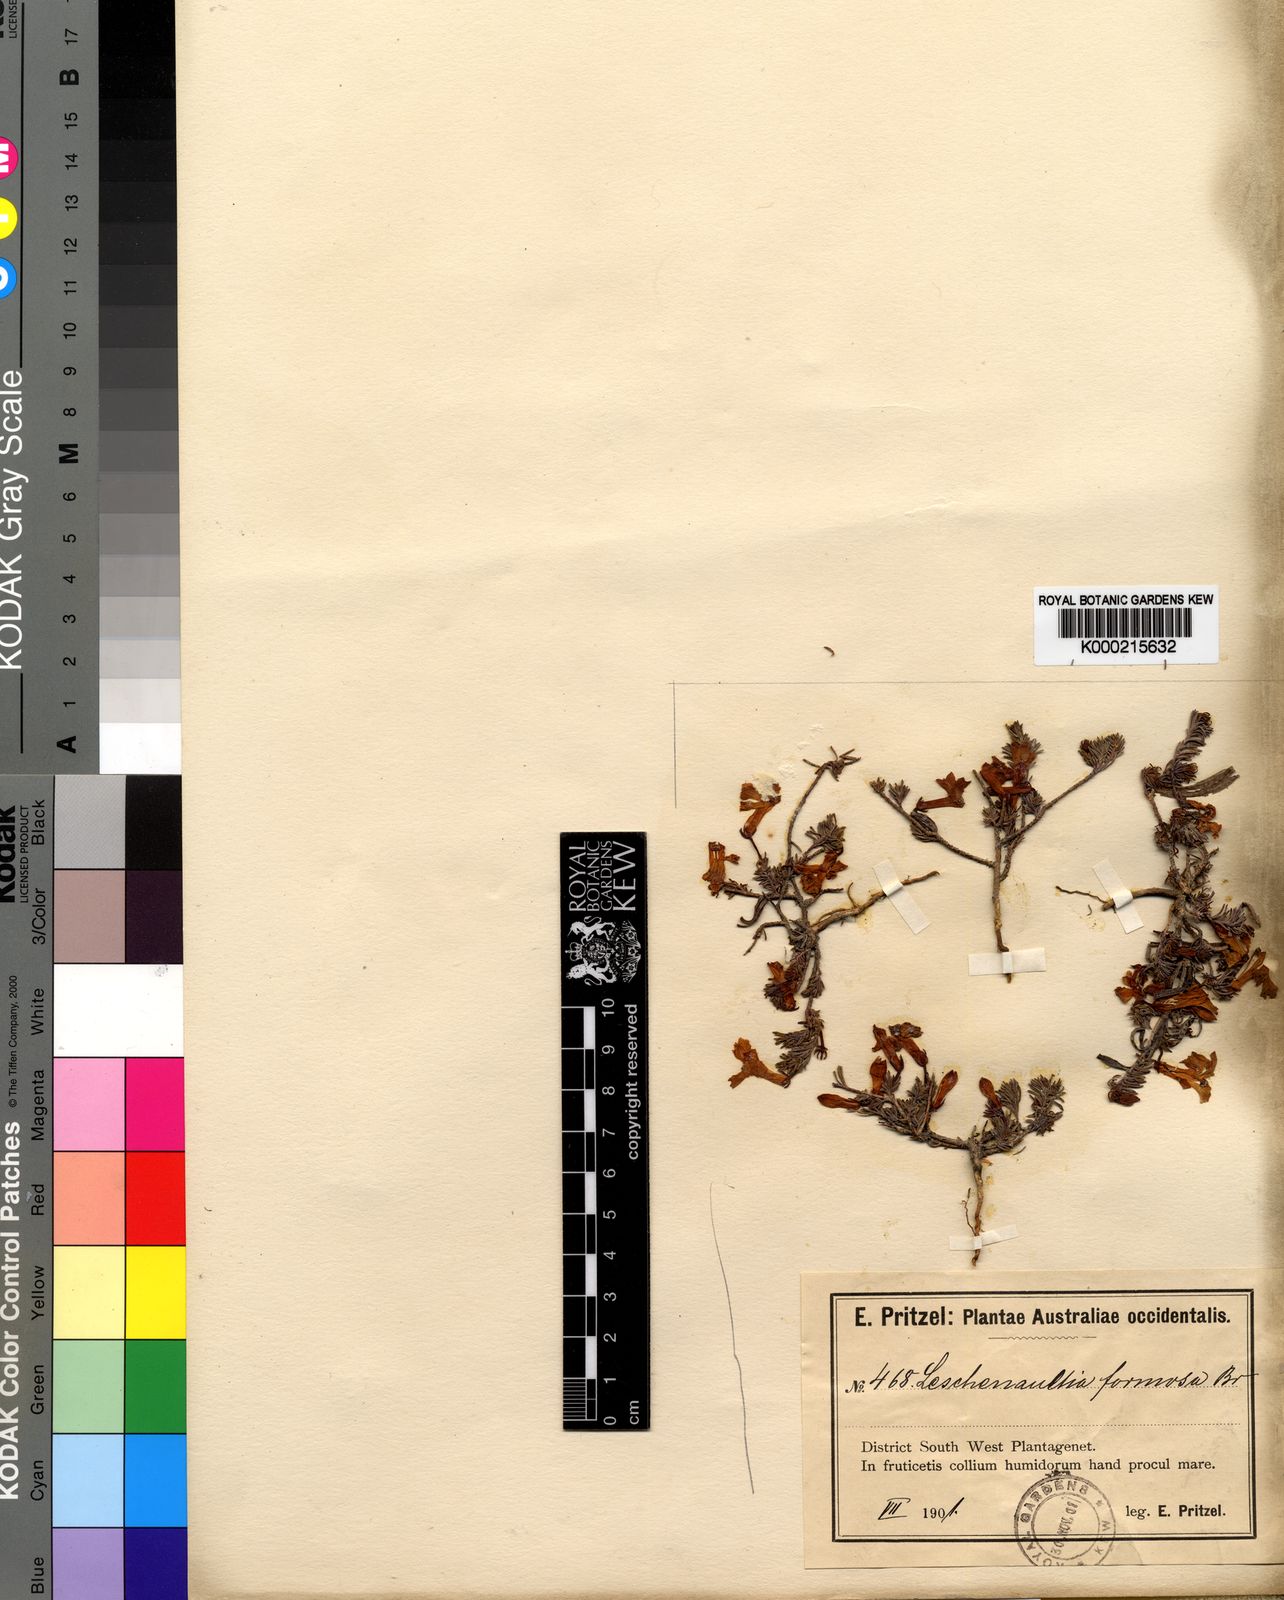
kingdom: Plantae
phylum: Tracheophyta
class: Magnoliopsida
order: Asterales
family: Goodeniaceae
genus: Leschenaultia
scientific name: Leschenaultia
